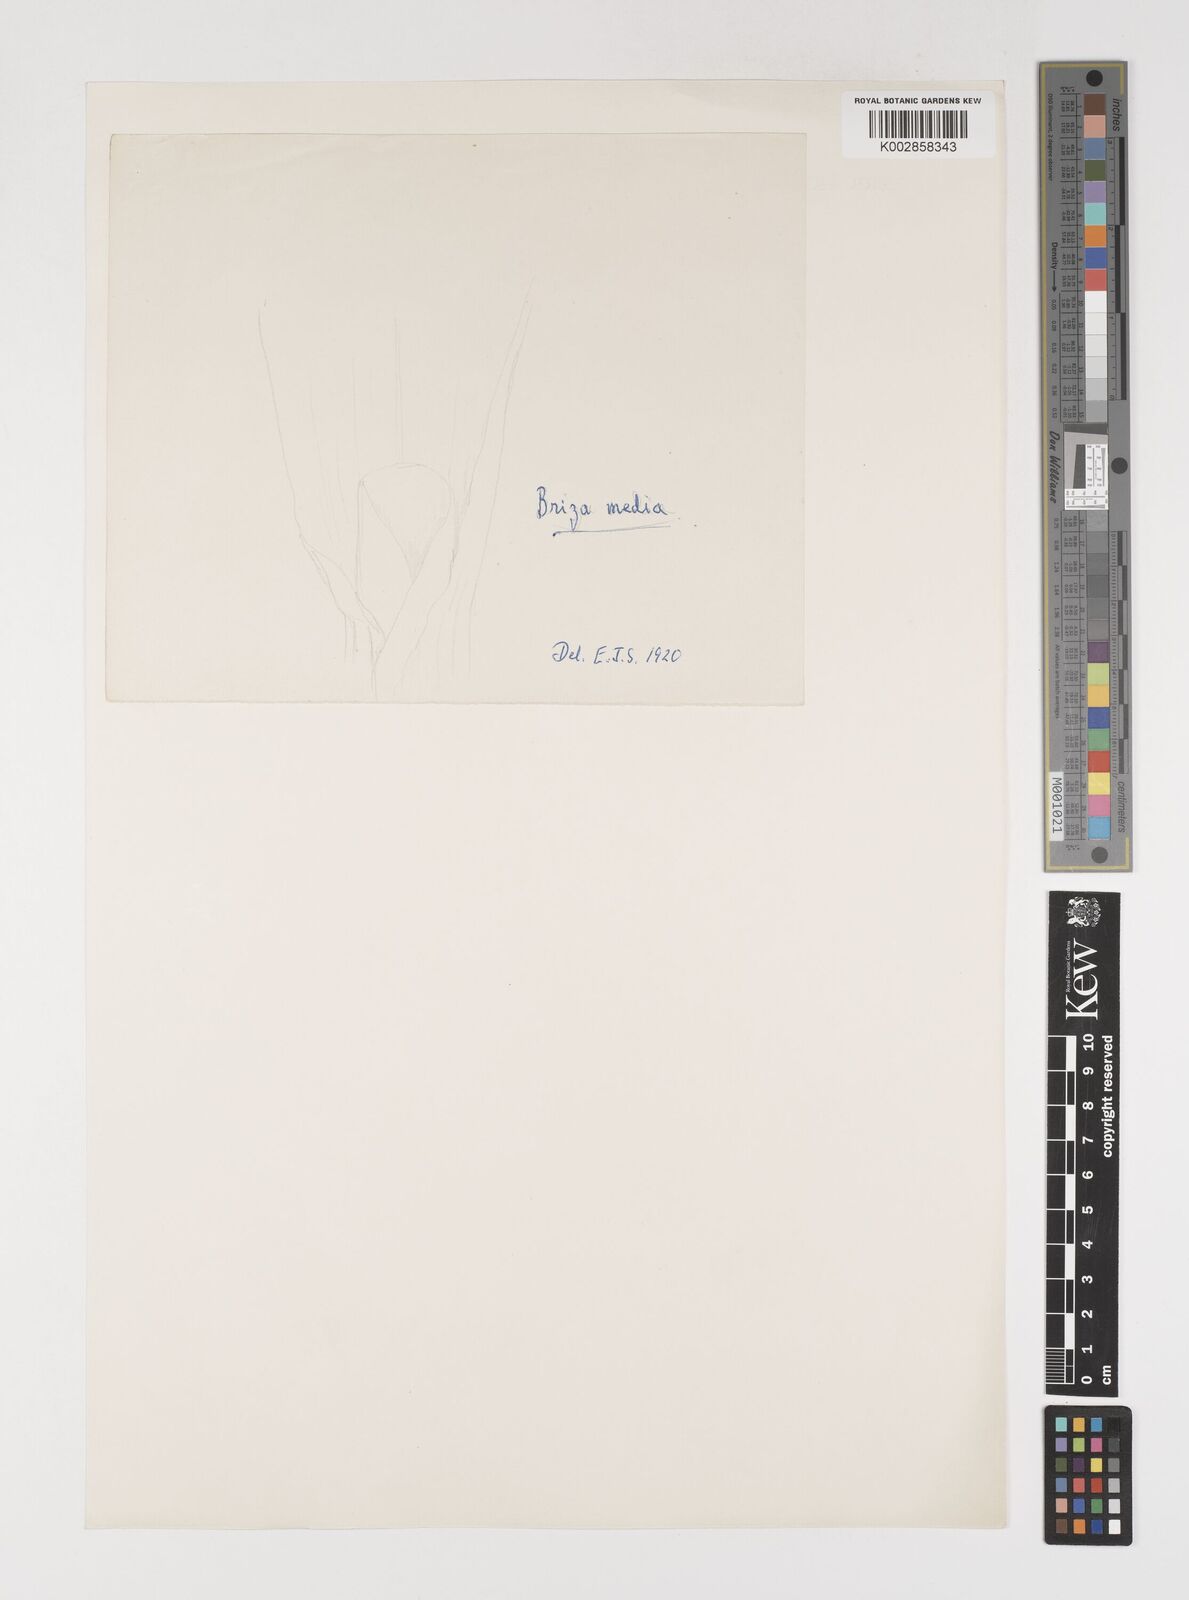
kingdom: Plantae
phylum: Tracheophyta
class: Liliopsida
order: Poales
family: Poaceae
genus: Briza
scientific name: Briza media
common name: Quaking grass
